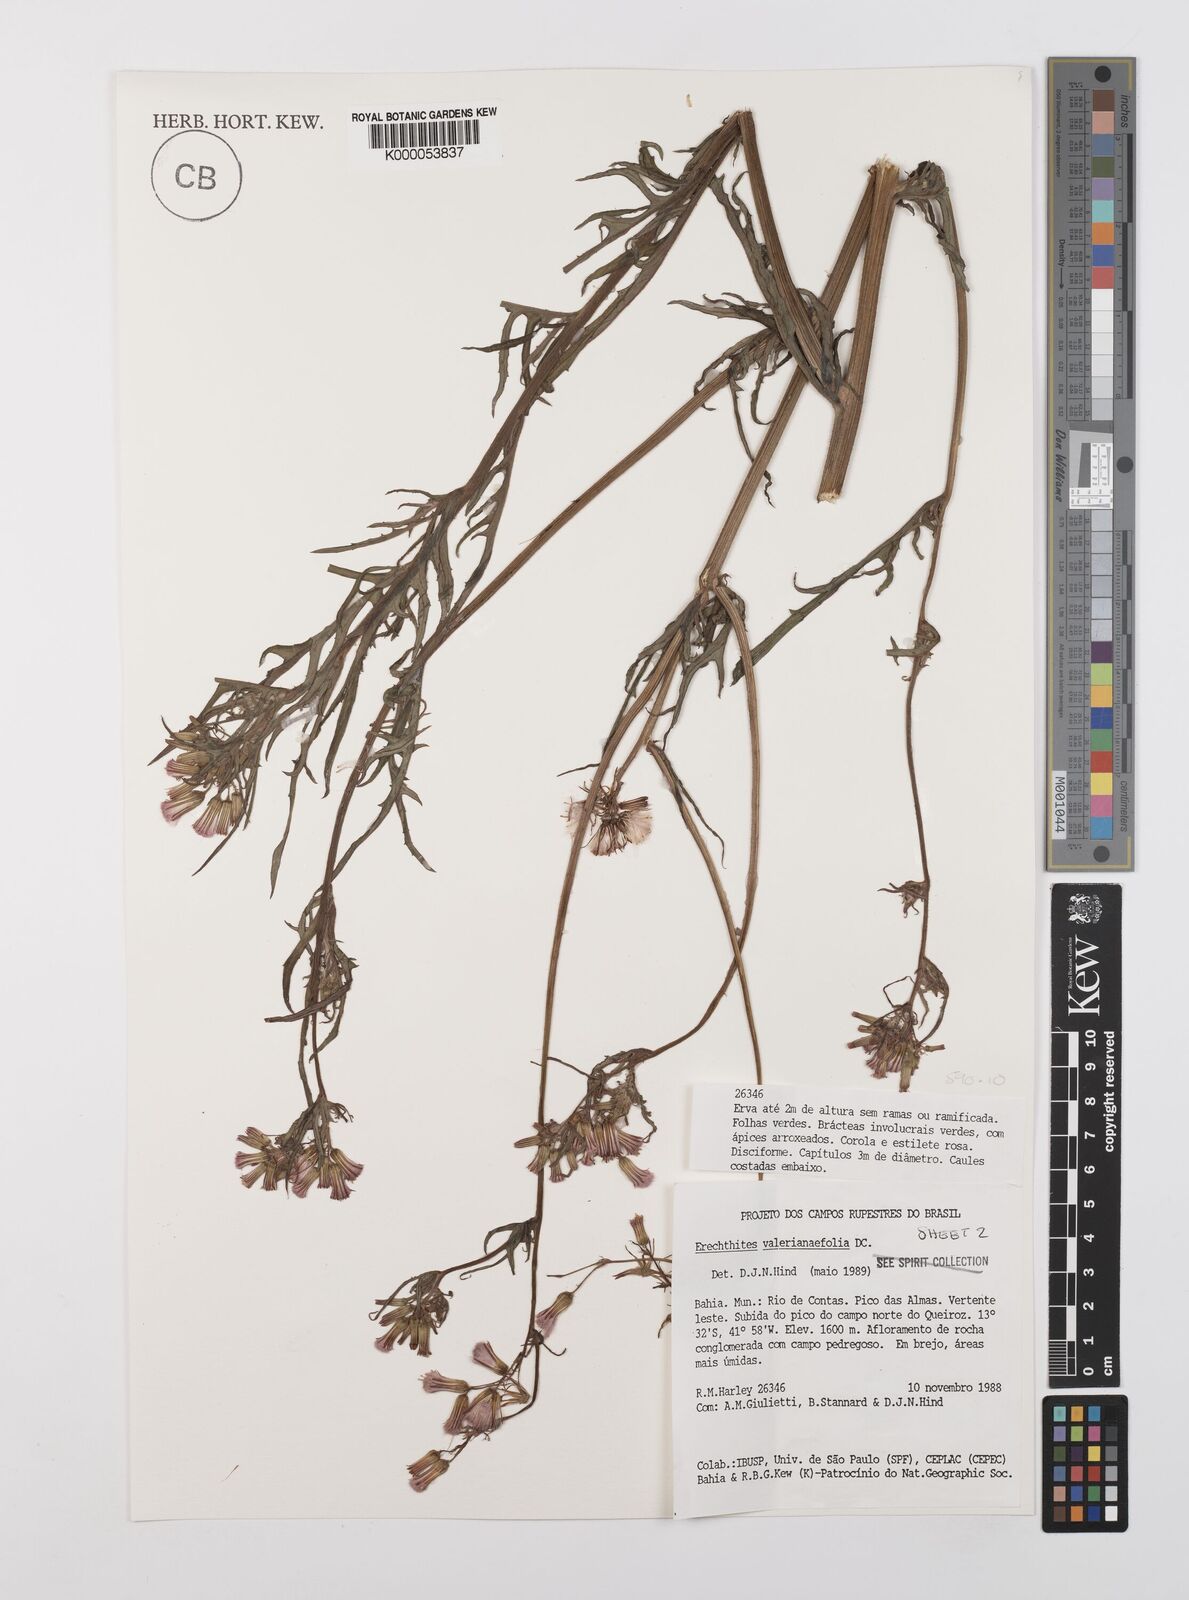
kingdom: Plantae
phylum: Tracheophyta
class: Magnoliopsida
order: Asterales
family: Asteraceae
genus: Erechtites
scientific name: Erechtites valerianifolius
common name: Tropical burnweed
